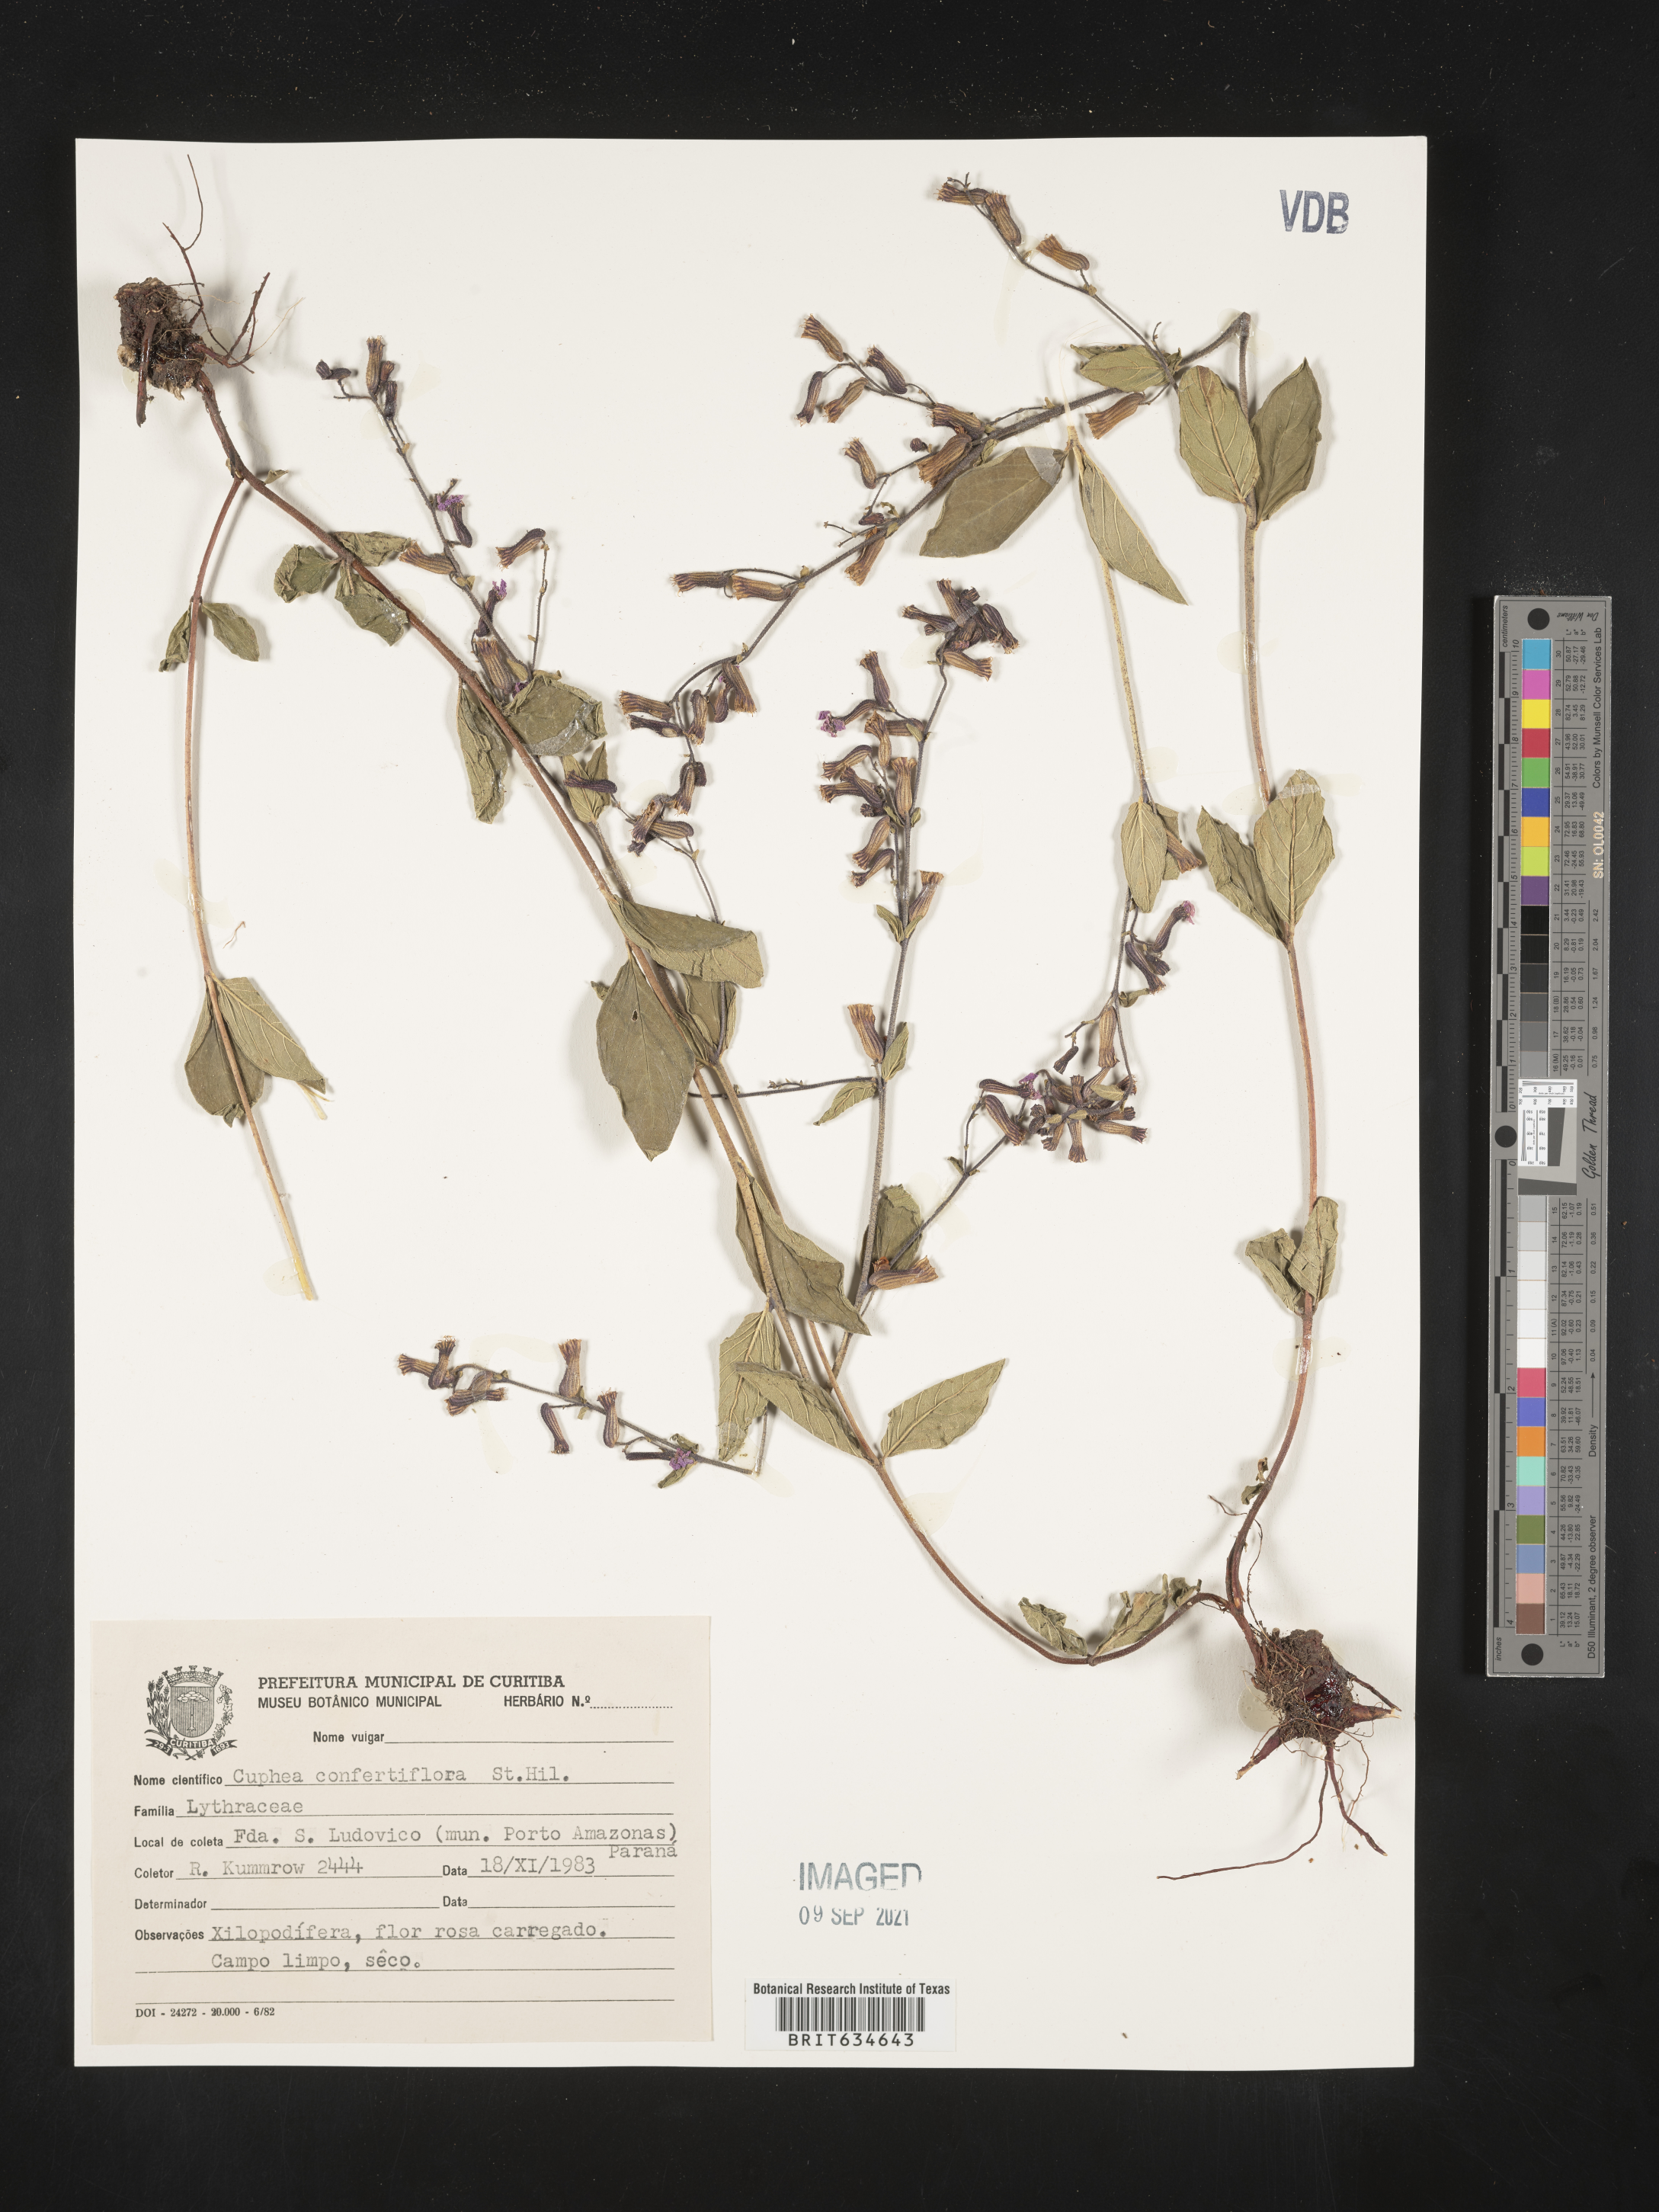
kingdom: Plantae
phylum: Tracheophyta
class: Magnoliopsida
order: Myrtales
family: Lythraceae
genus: Cuphea
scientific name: Cuphea
